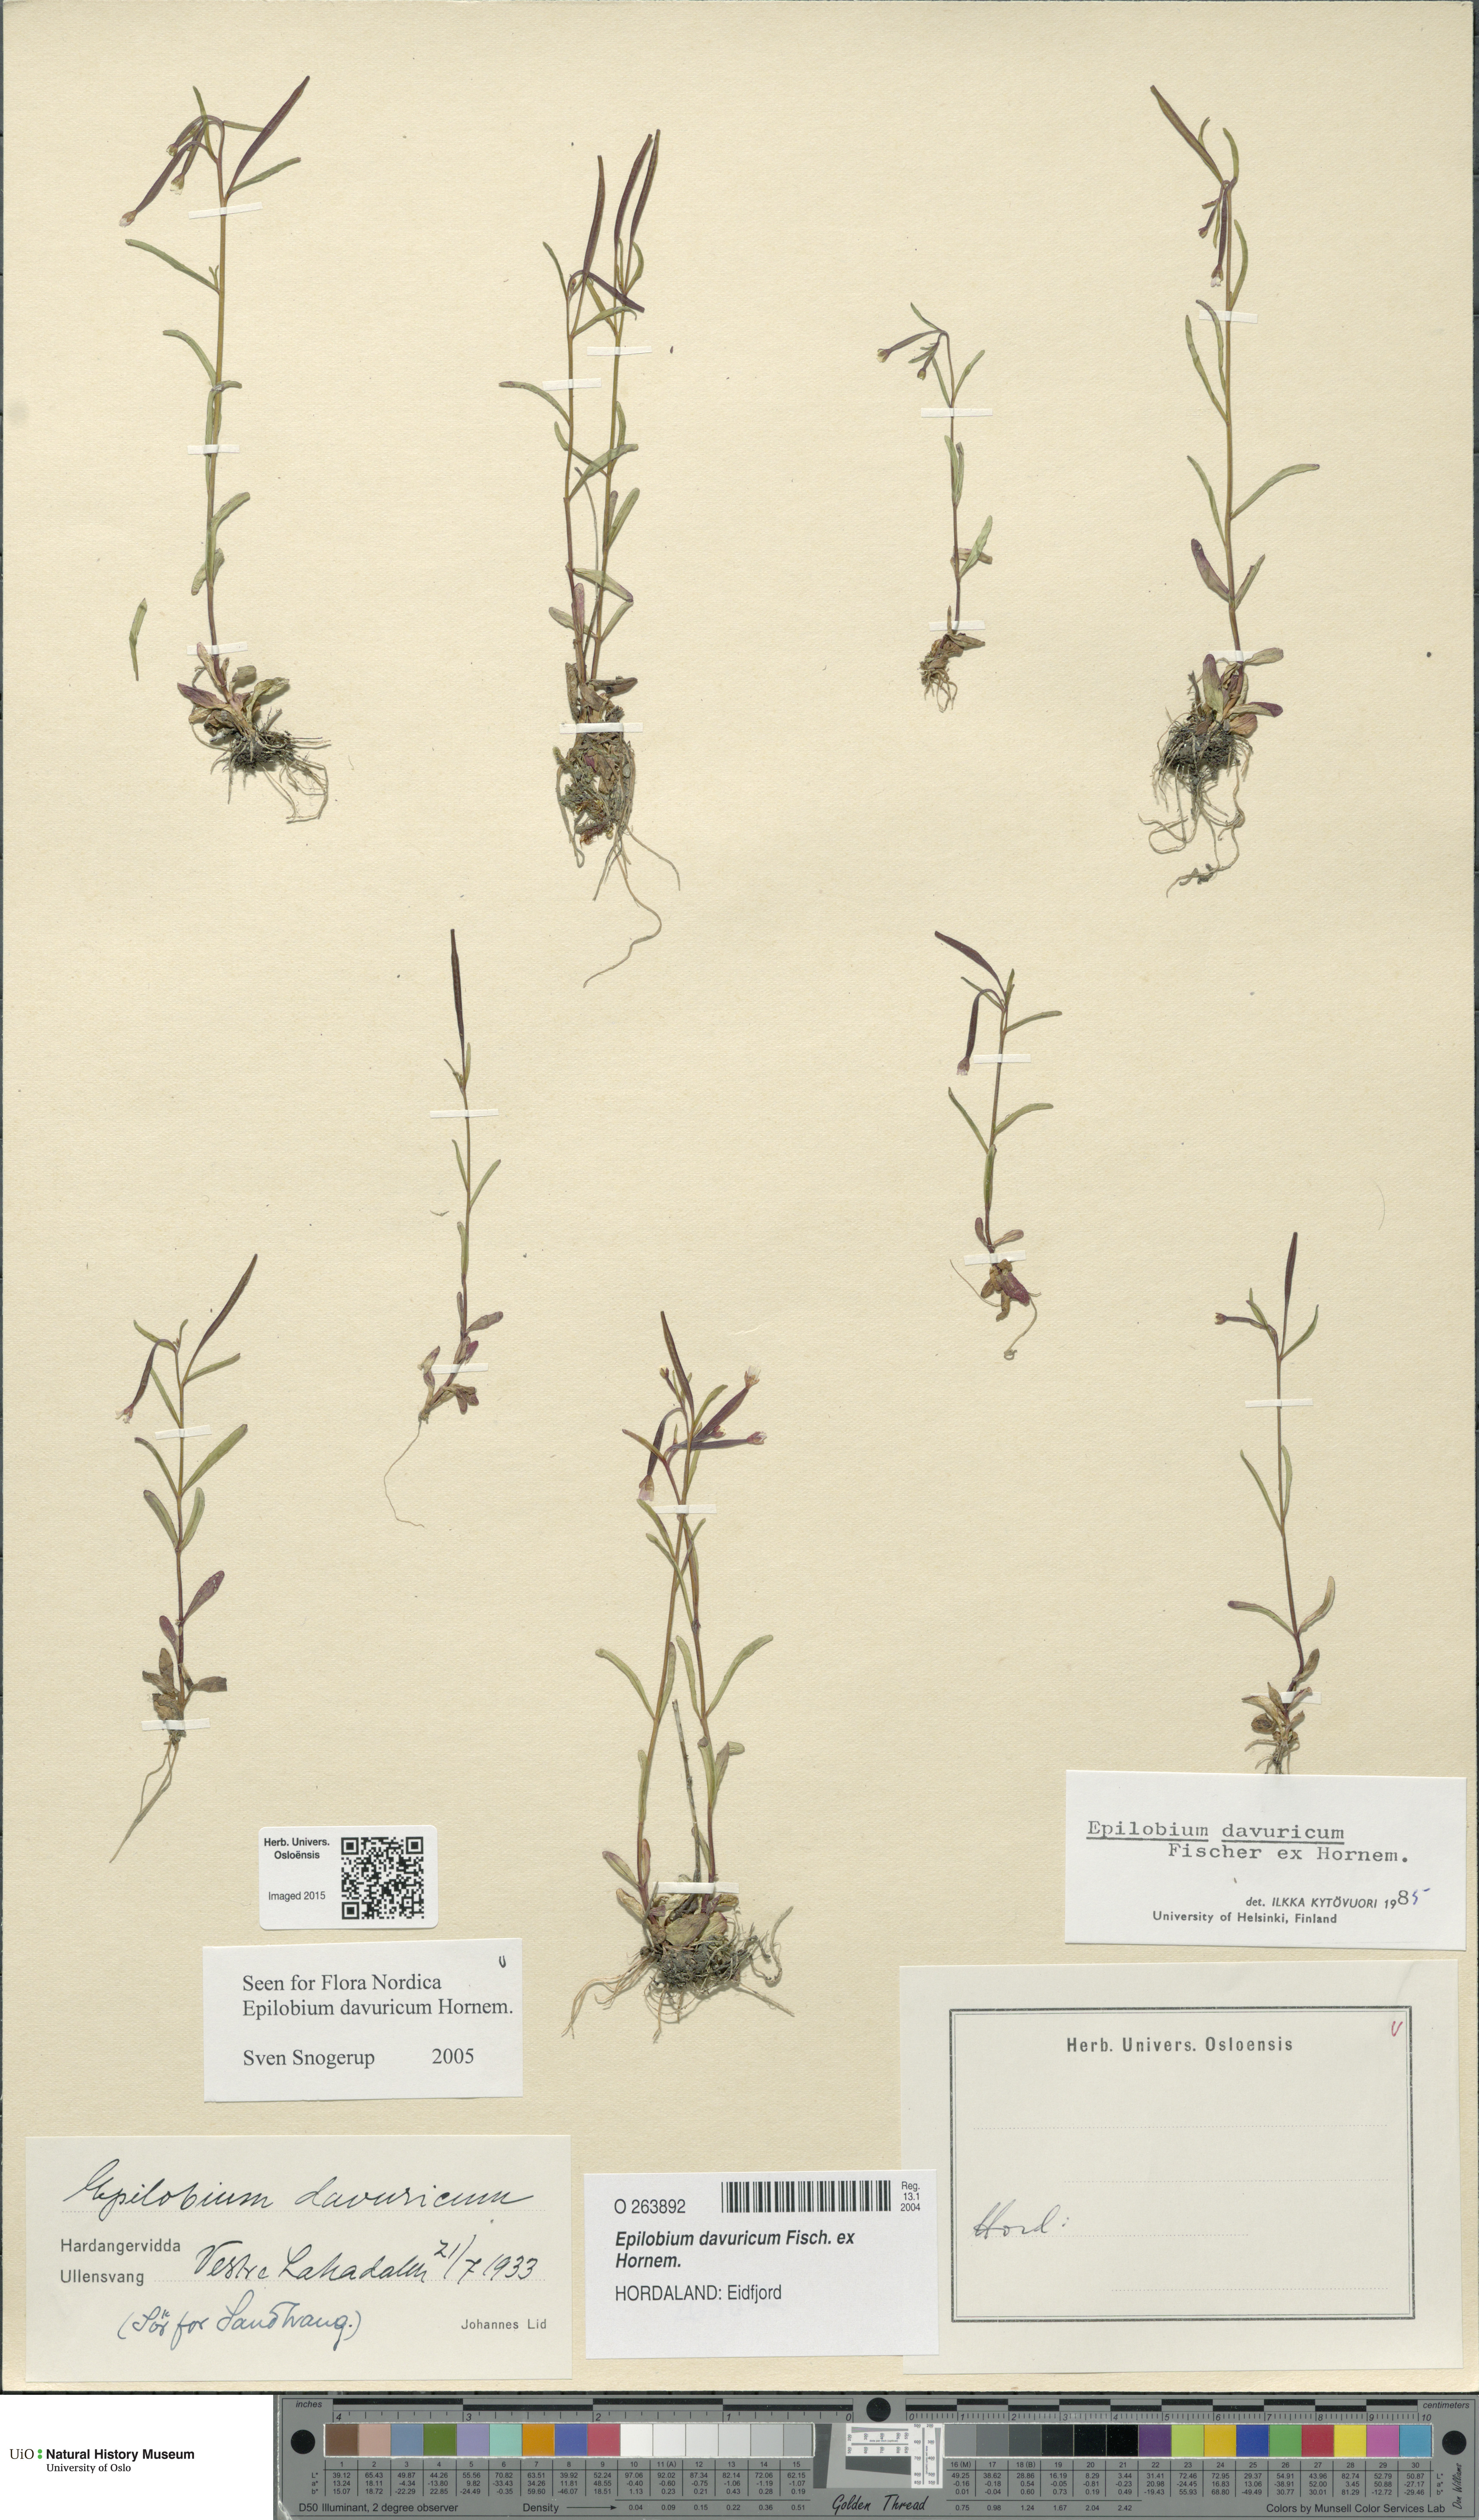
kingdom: Plantae
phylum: Tracheophyta
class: Magnoliopsida
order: Myrtales
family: Onagraceae
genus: Epilobium
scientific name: Epilobium davuricum
